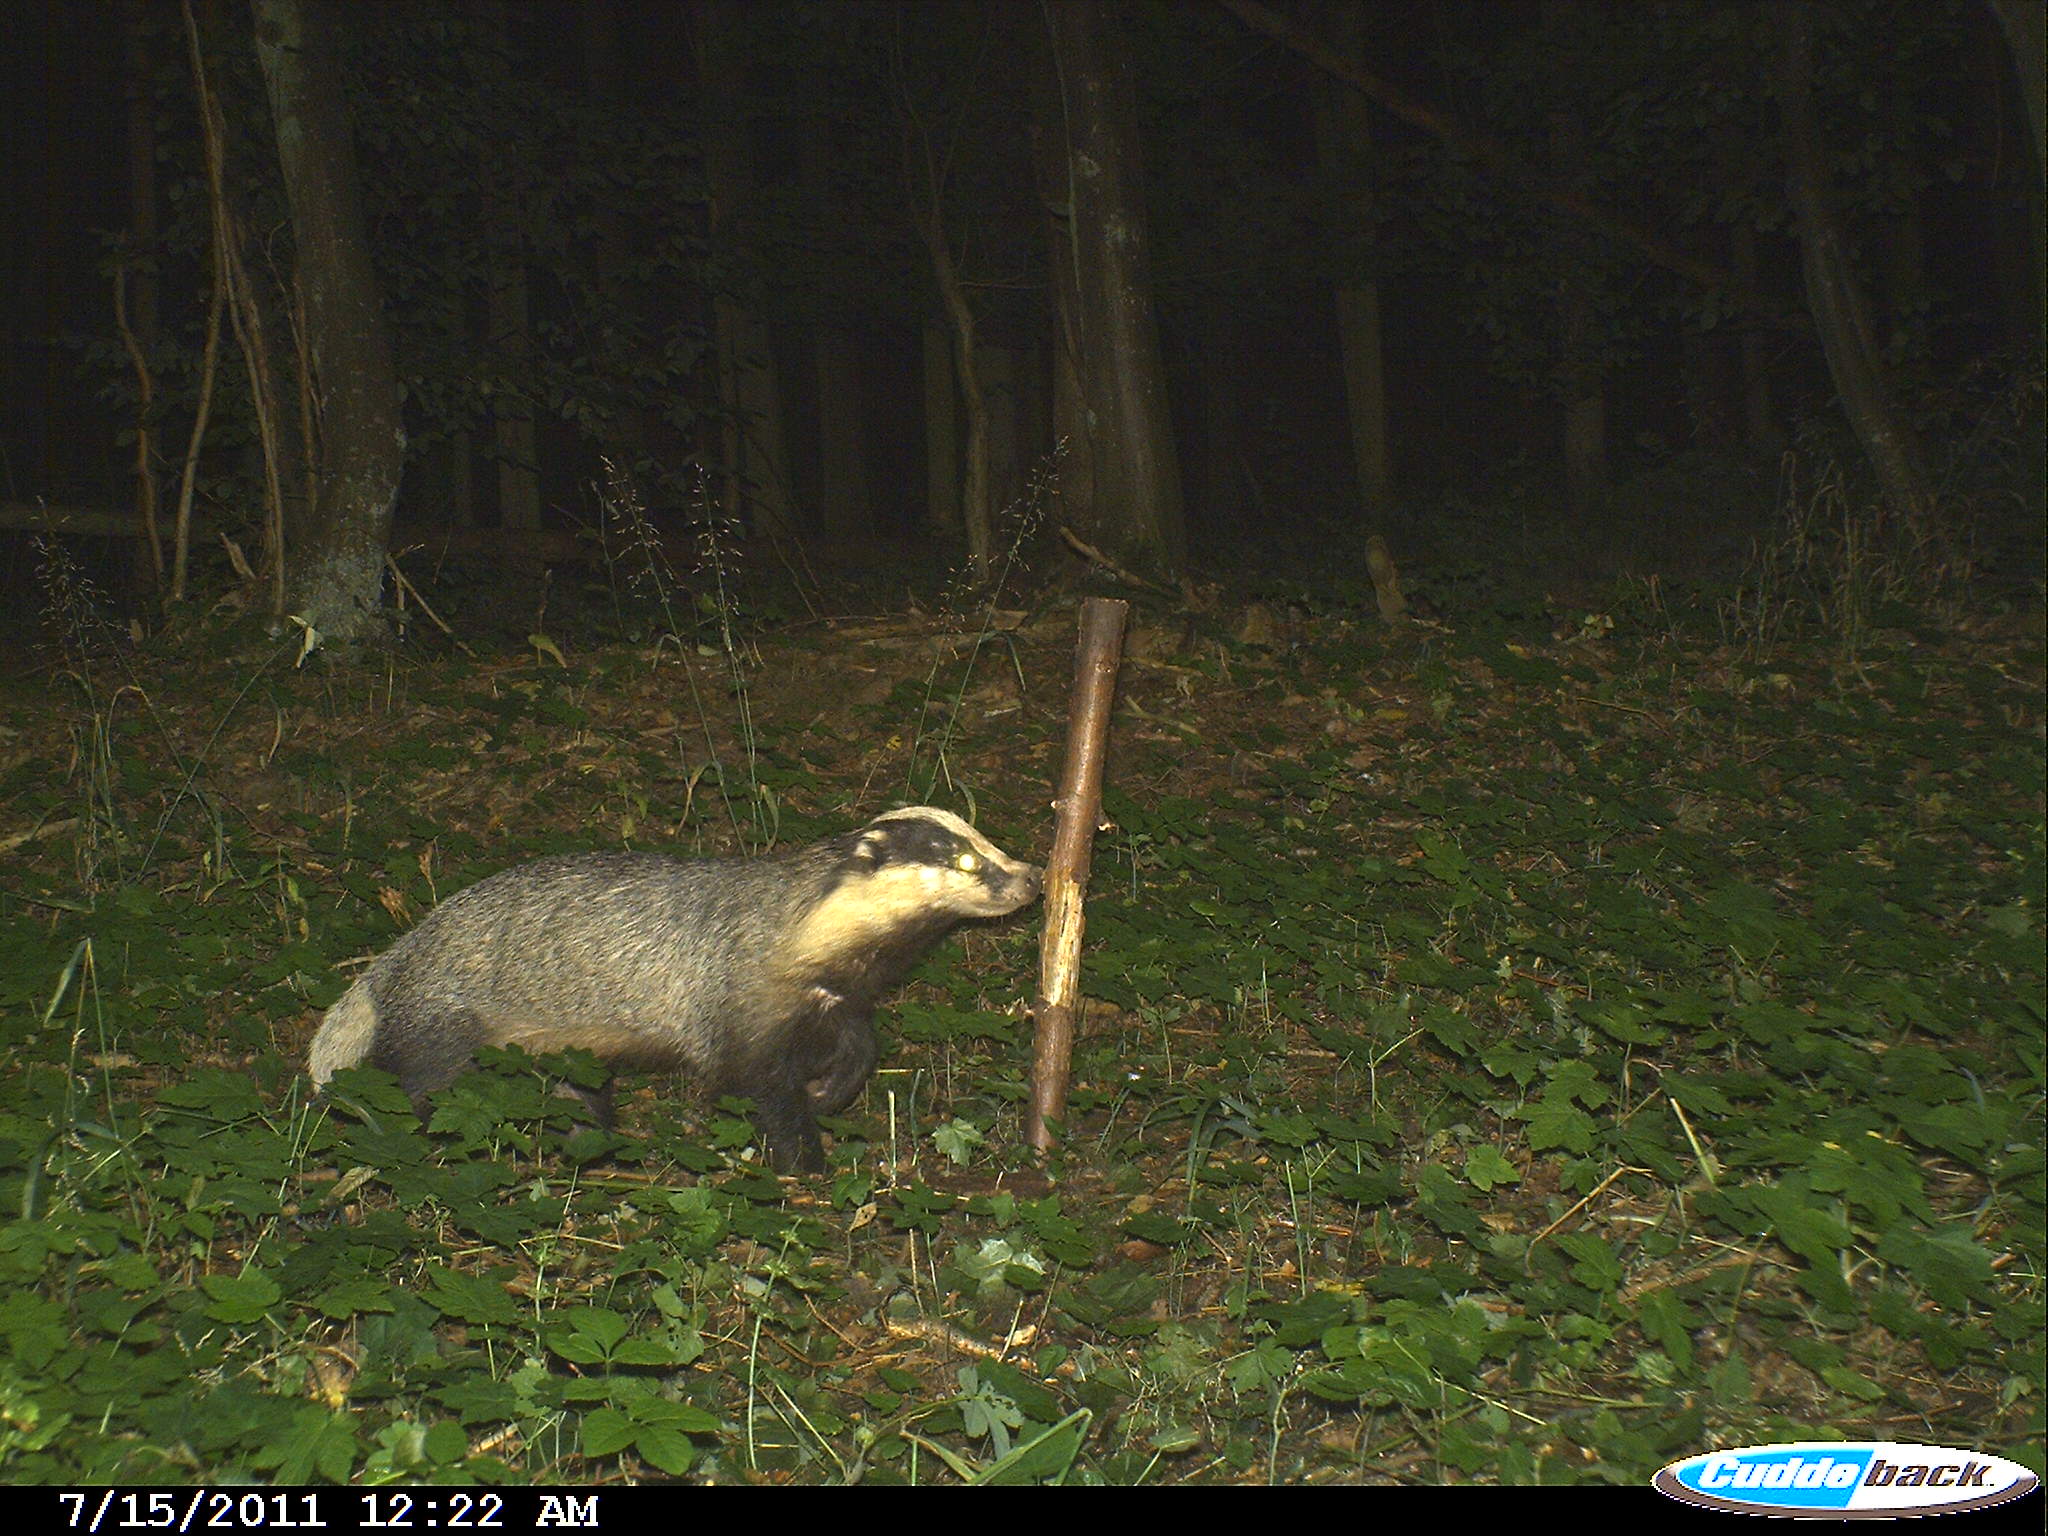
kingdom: Animalia
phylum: Chordata
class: Mammalia
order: Carnivora
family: Mustelidae
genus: Meles
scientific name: Meles meles
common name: Eurasian badger
